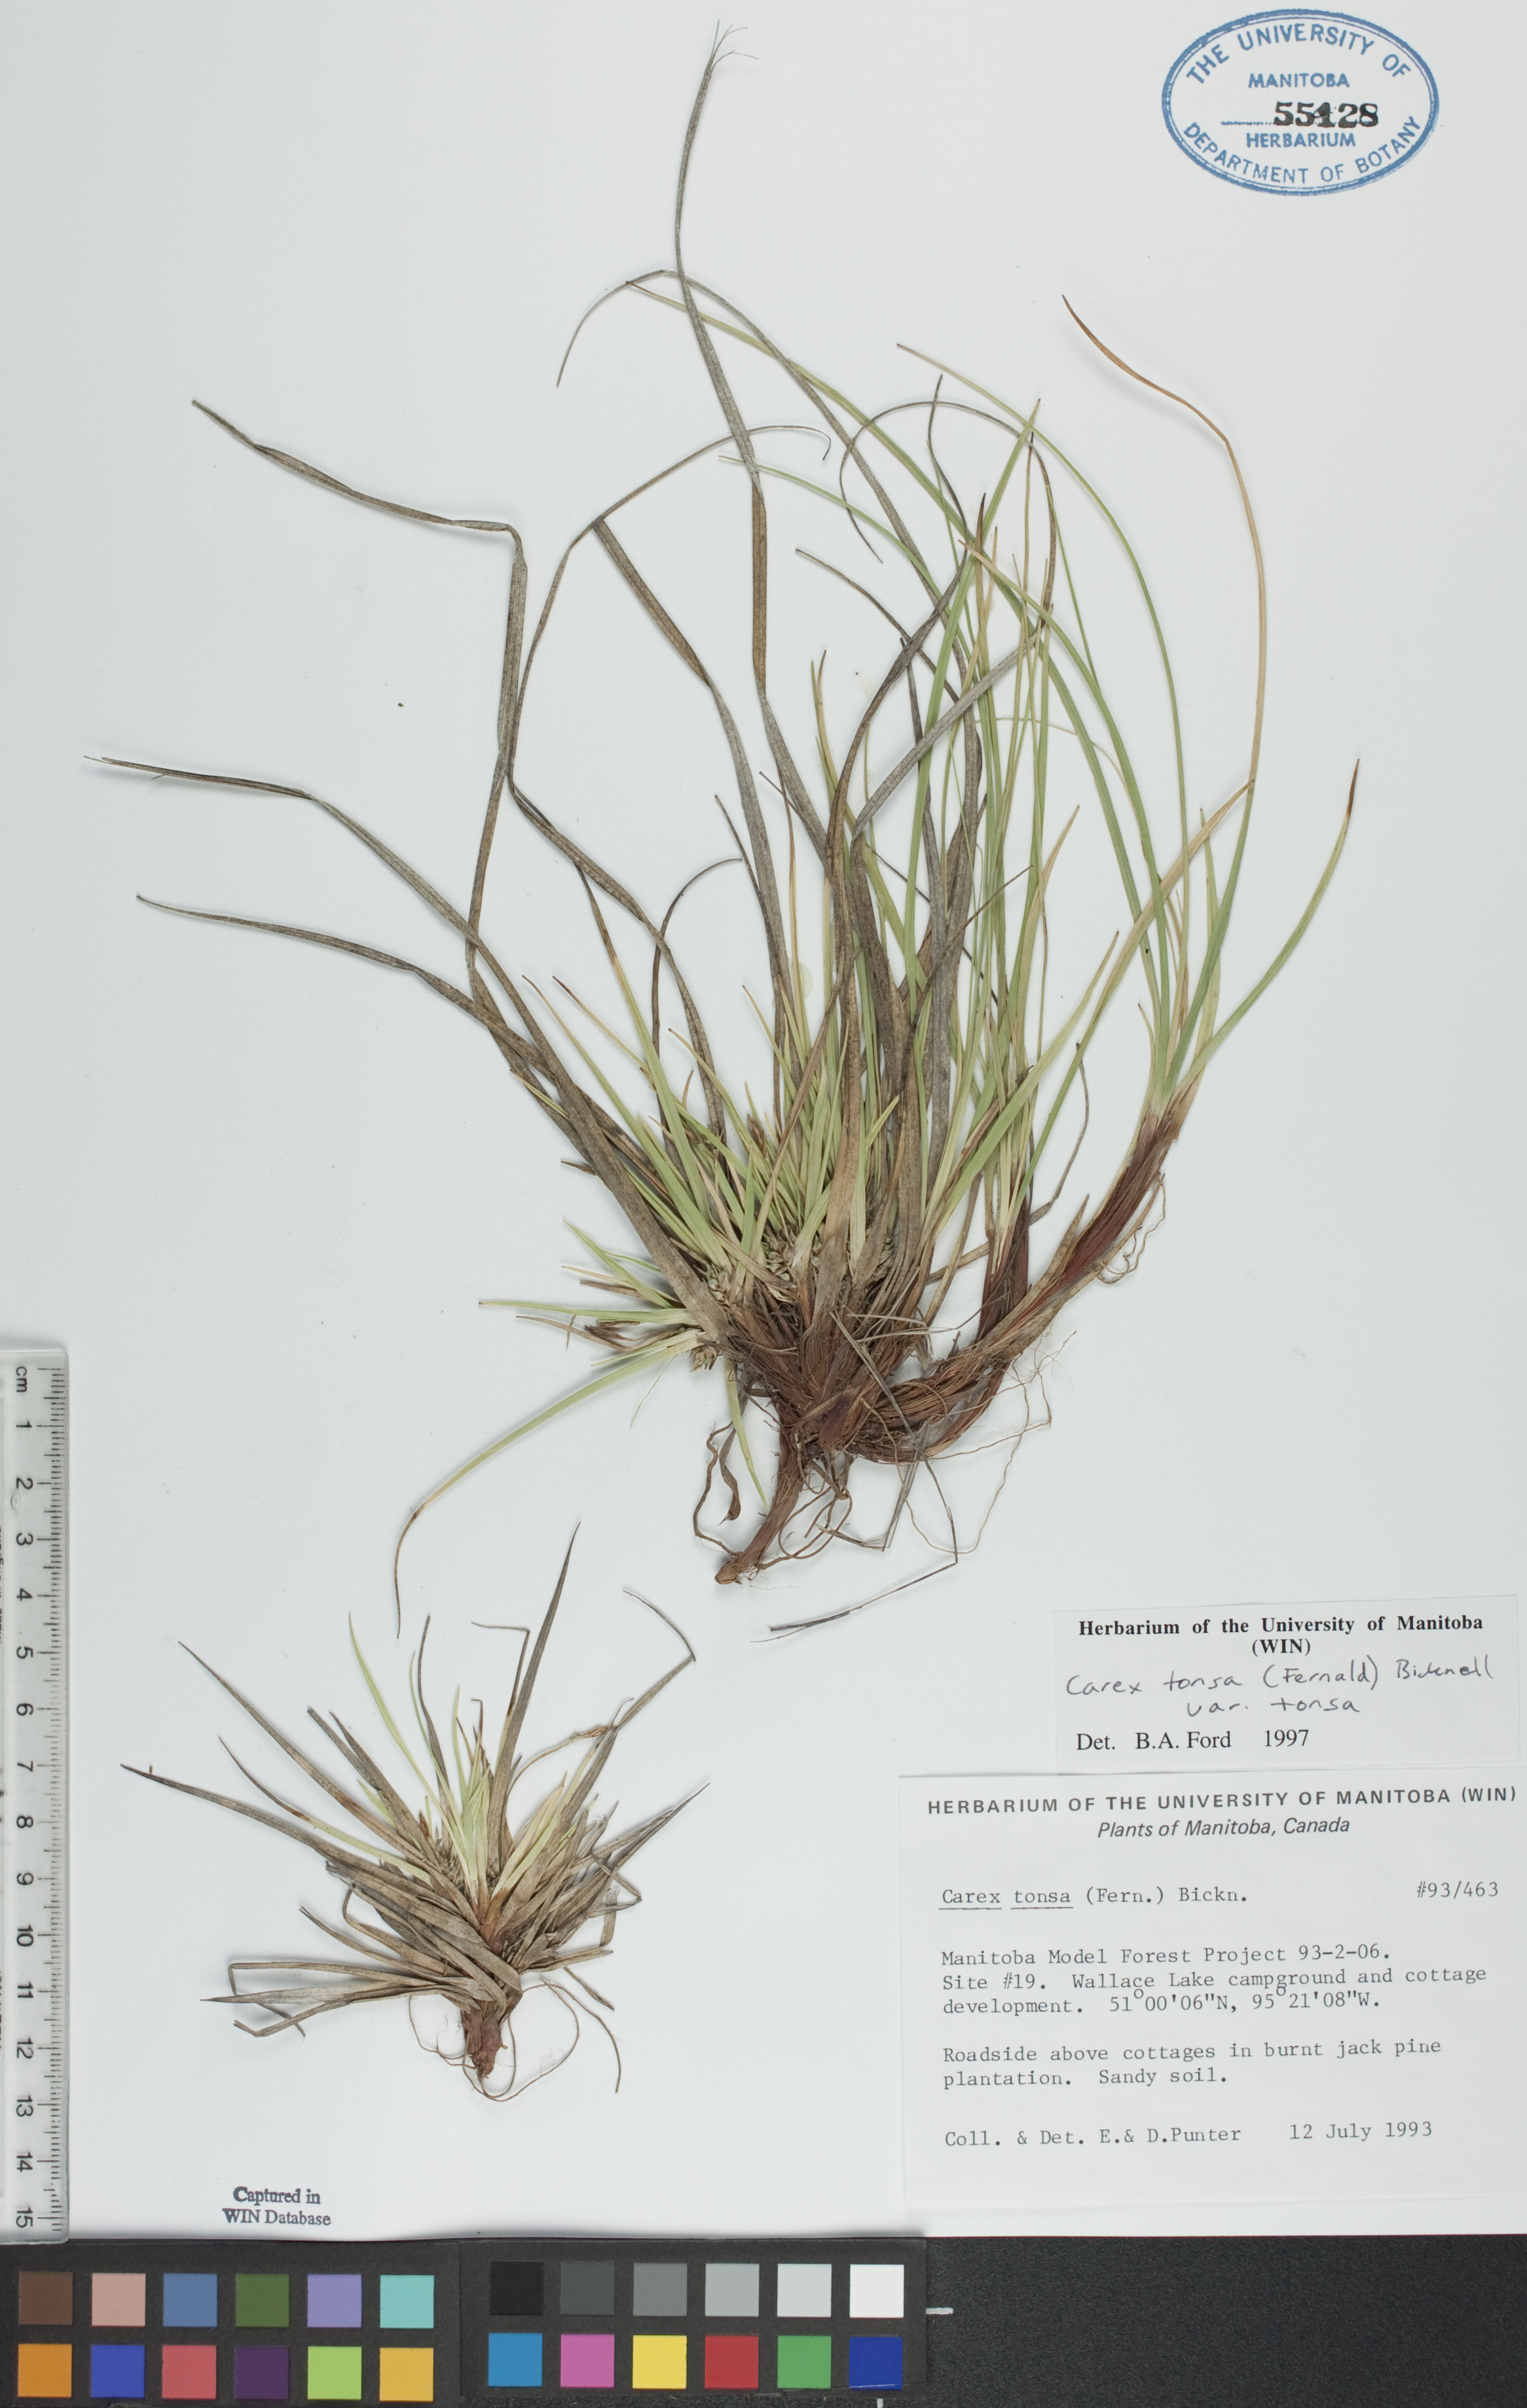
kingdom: Plantae
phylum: Tracheophyta
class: Liliopsida
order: Poales
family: Cyperaceae
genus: Carex
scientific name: Carex tonsa
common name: Bald sedge
